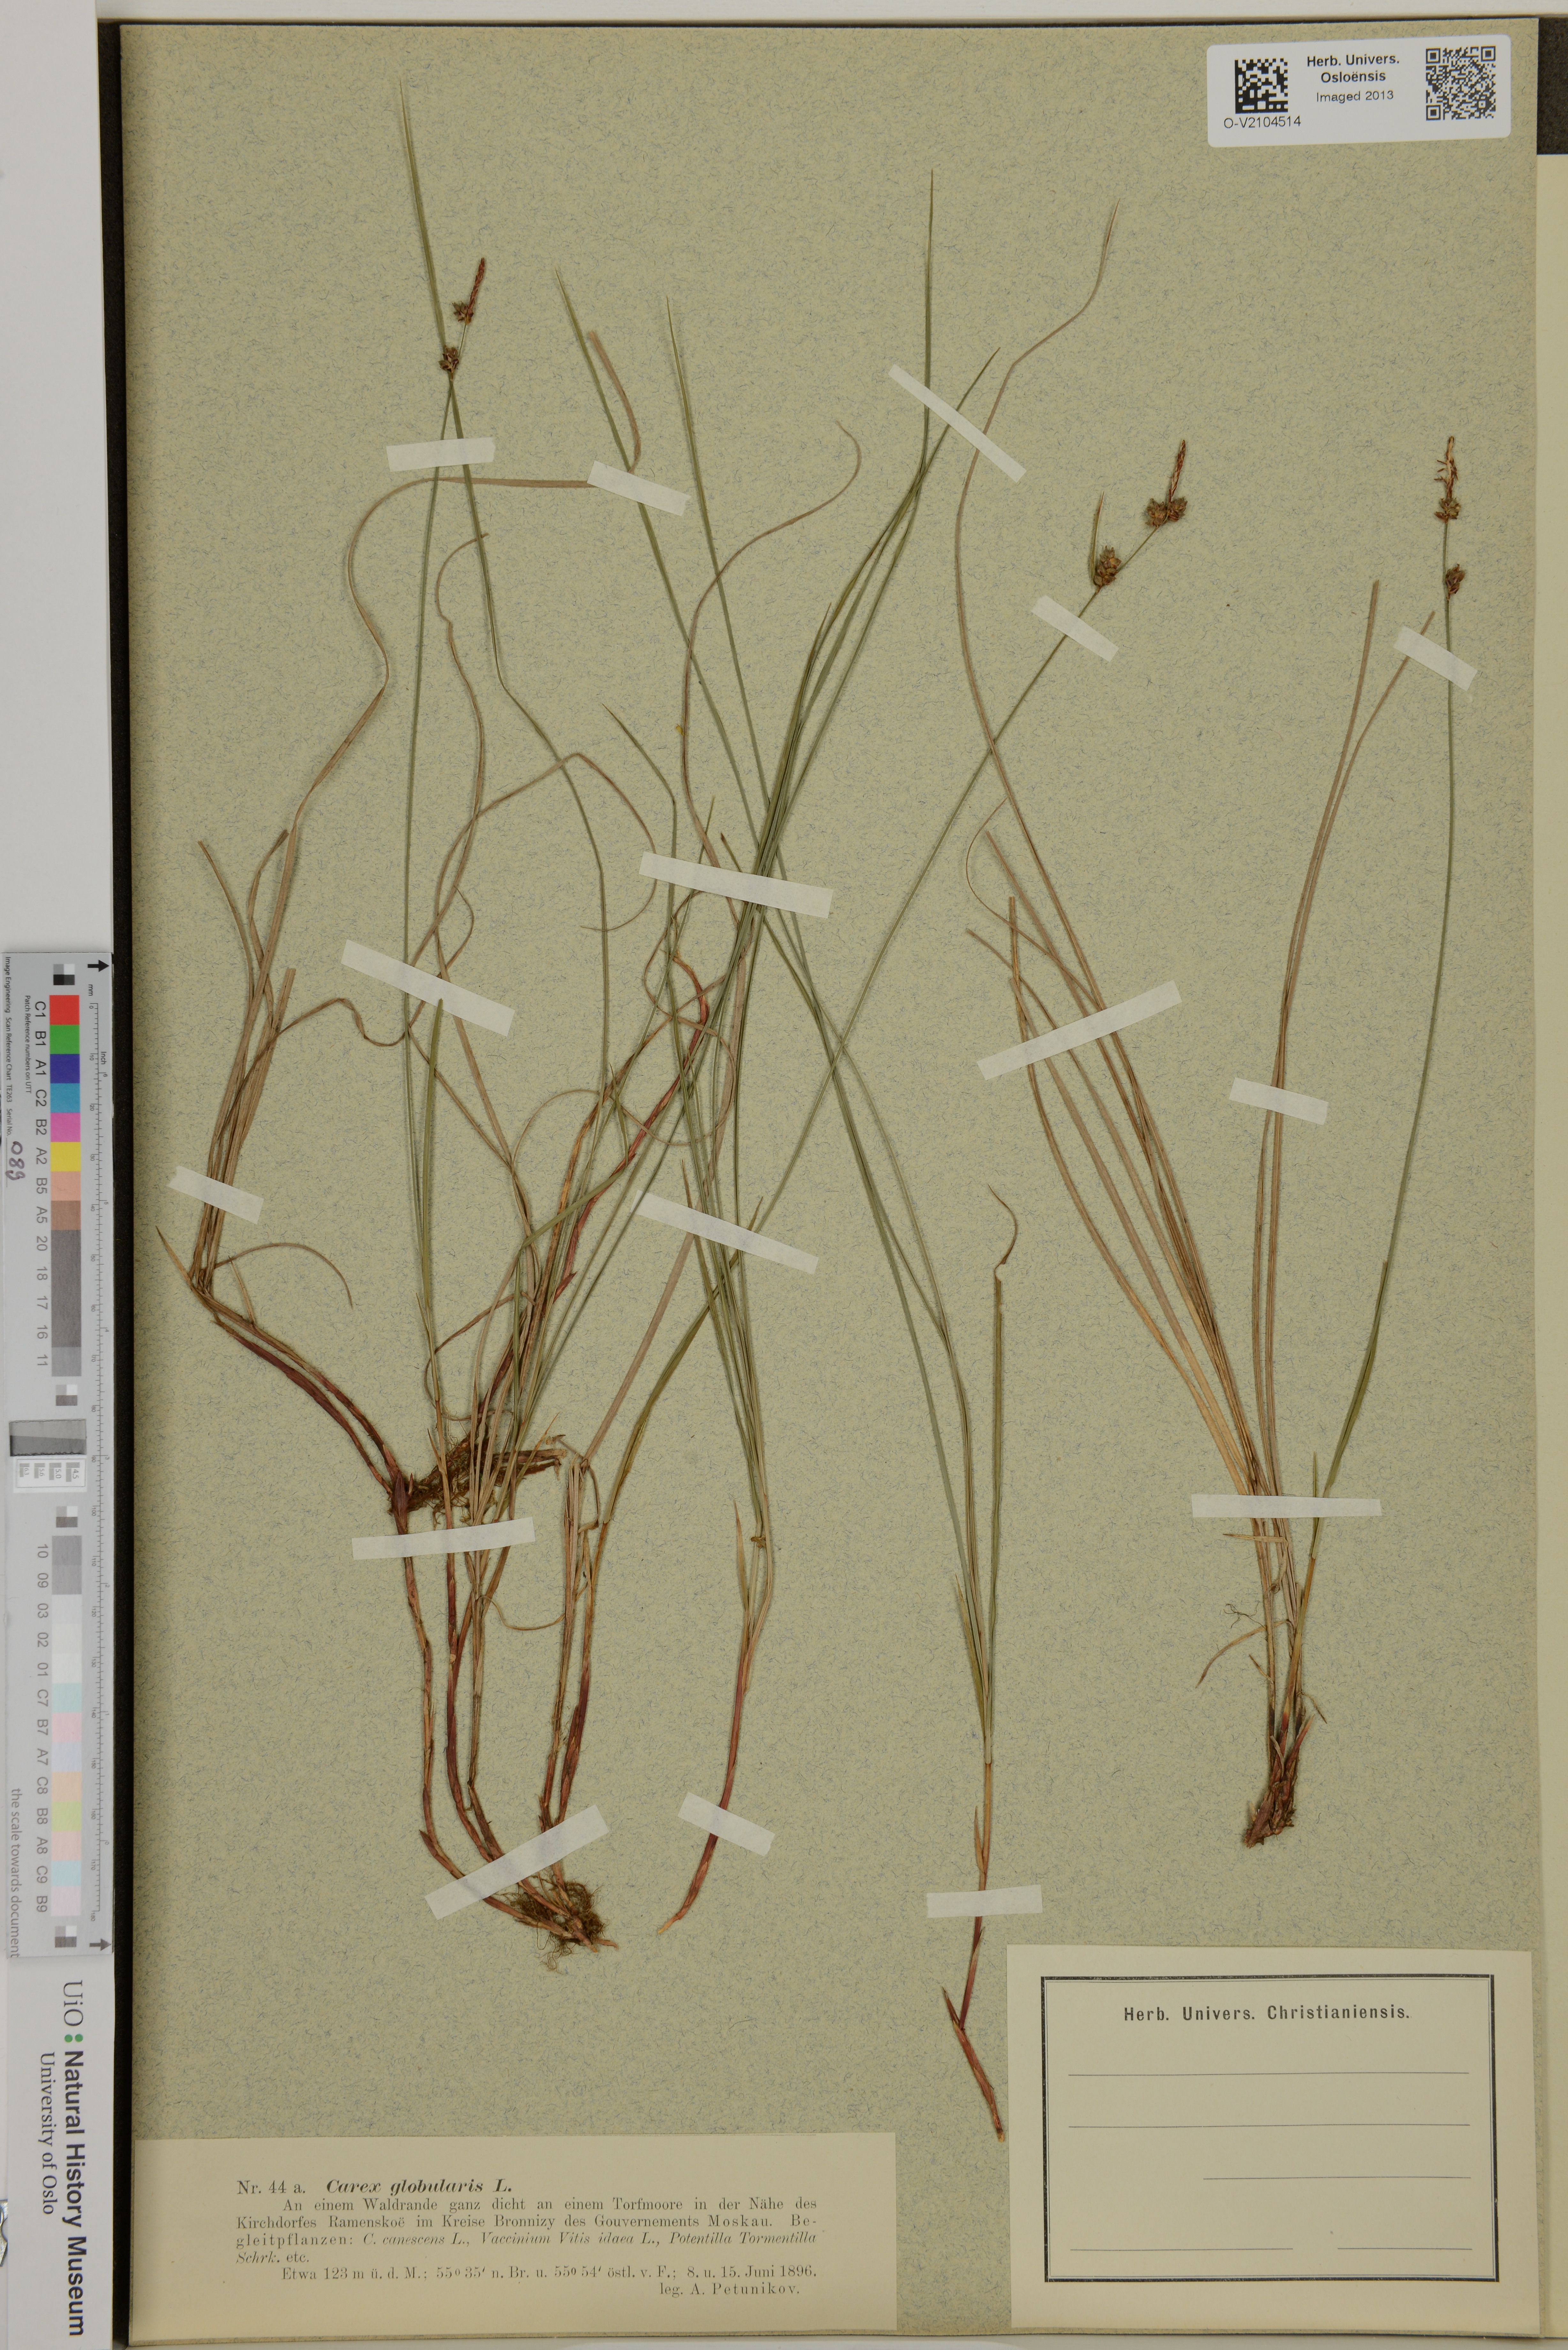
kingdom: Plantae
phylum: Tracheophyta
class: Liliopsida
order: Poales
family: Cyperaceae
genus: Carex
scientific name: Carex globularis
